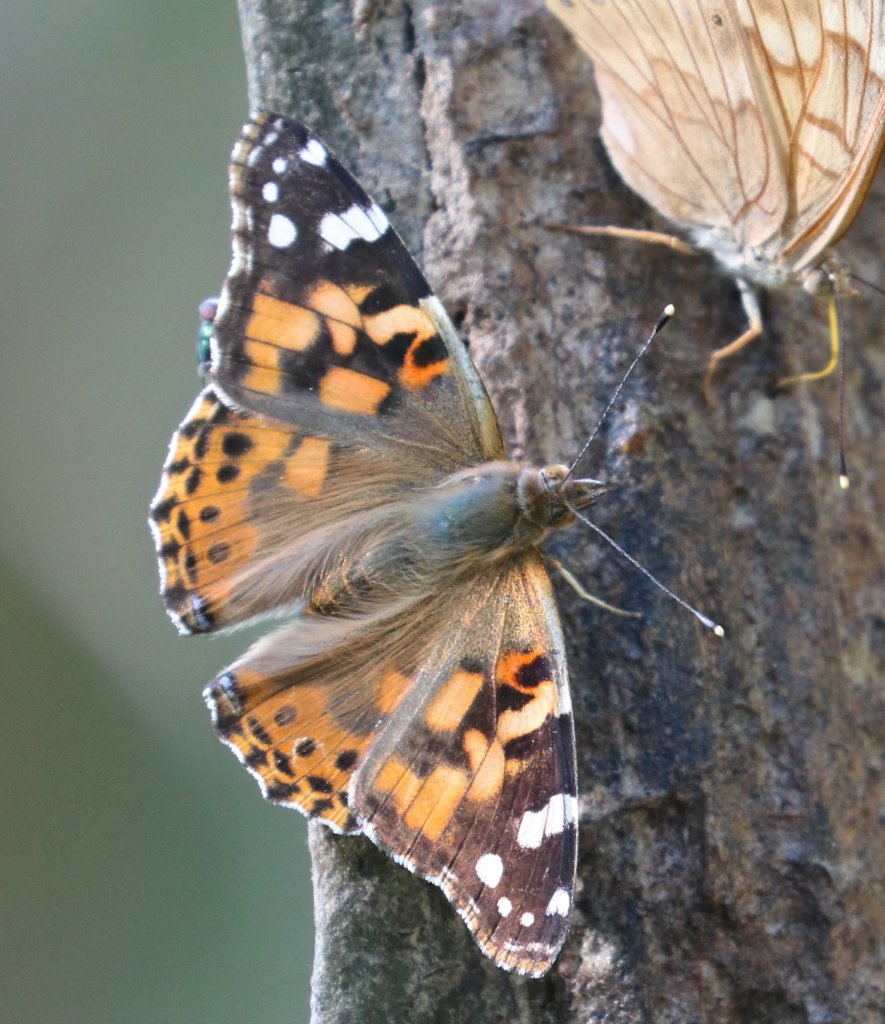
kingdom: Animalia
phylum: Arthropoda
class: Insecta
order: Lepidoptera
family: Nymphalidae
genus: Vanessa
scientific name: Vanessa cardui
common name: Painted Lady
